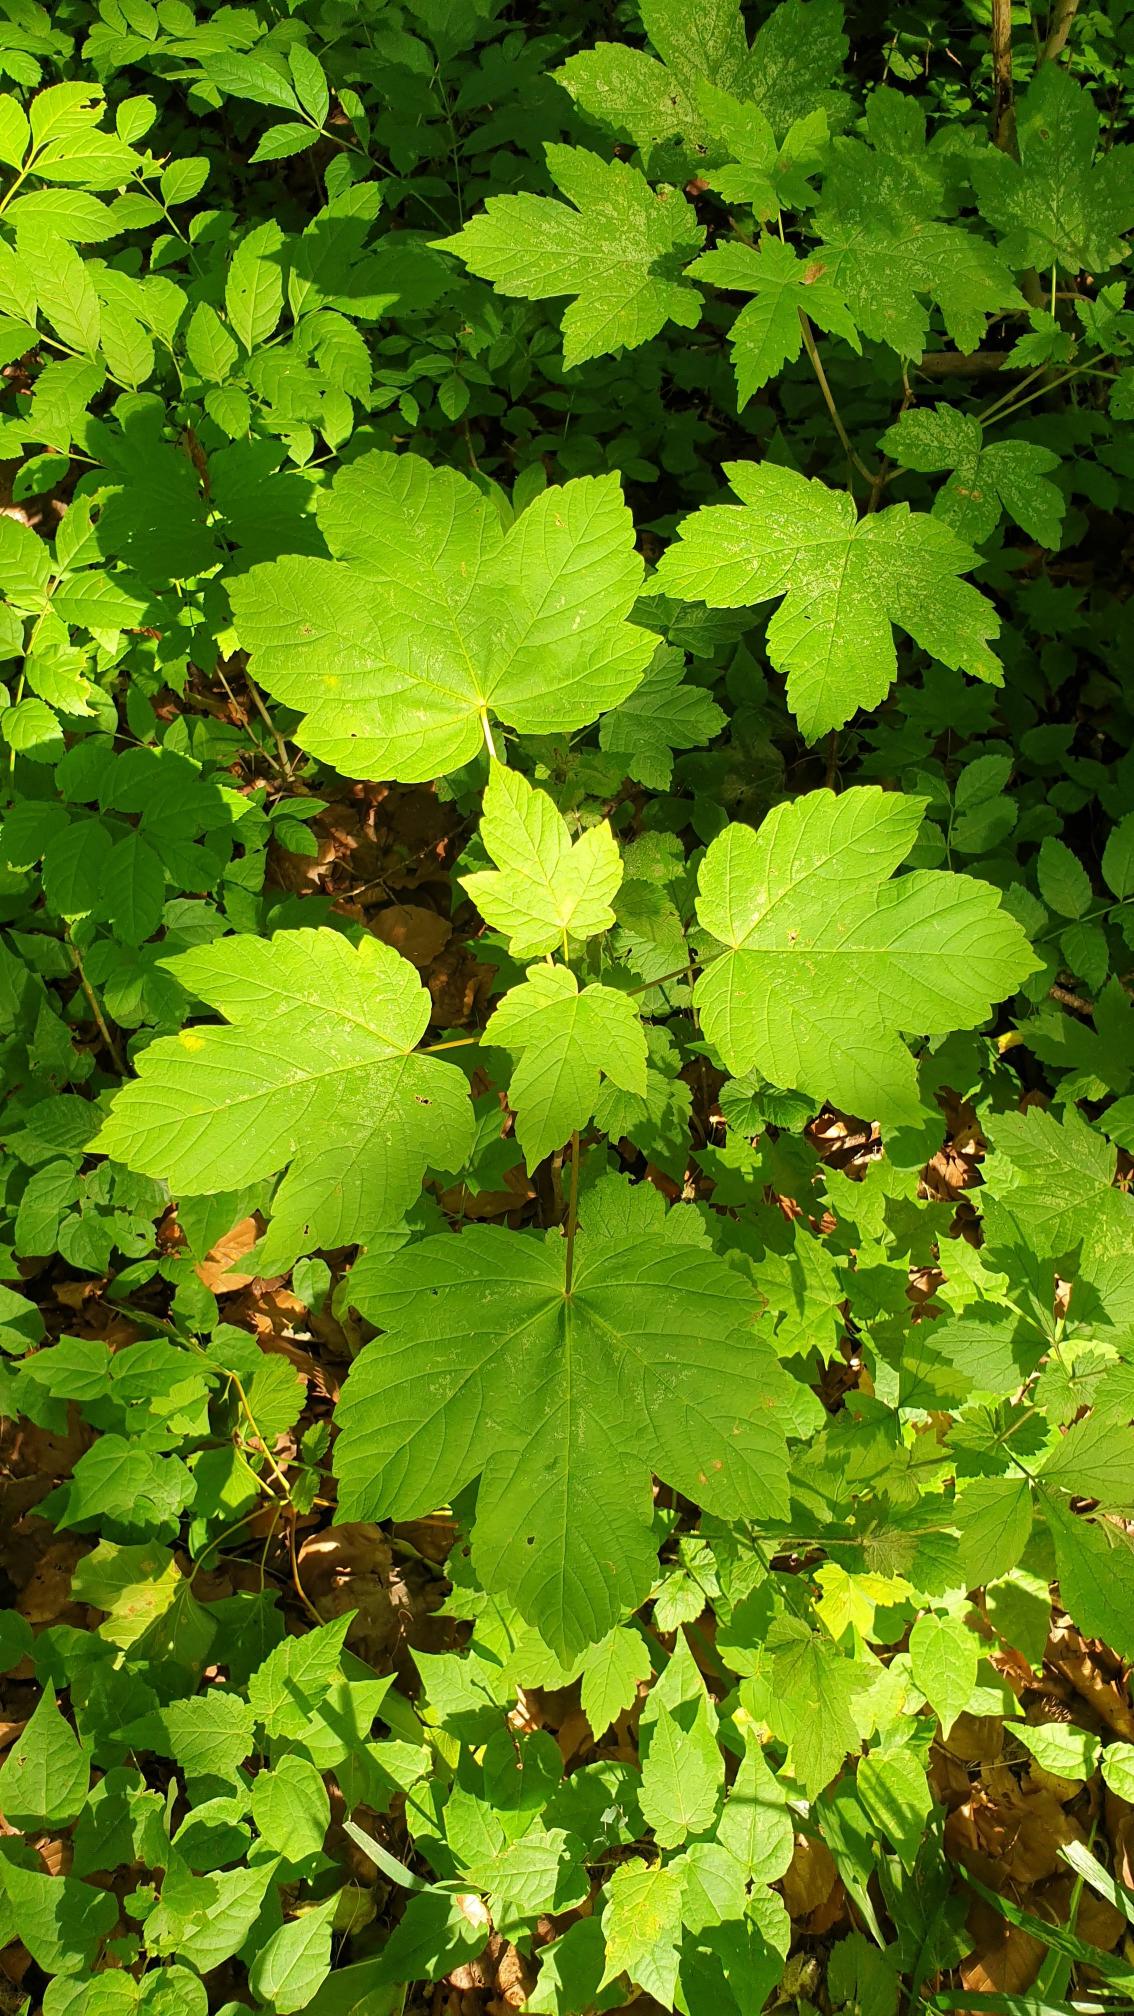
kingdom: Plantae
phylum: Tracheophyta
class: Magnoliopsida
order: Sapindales
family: Sapindaceae
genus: Acer
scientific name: Acer pseudoplatanus
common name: Ahorn
